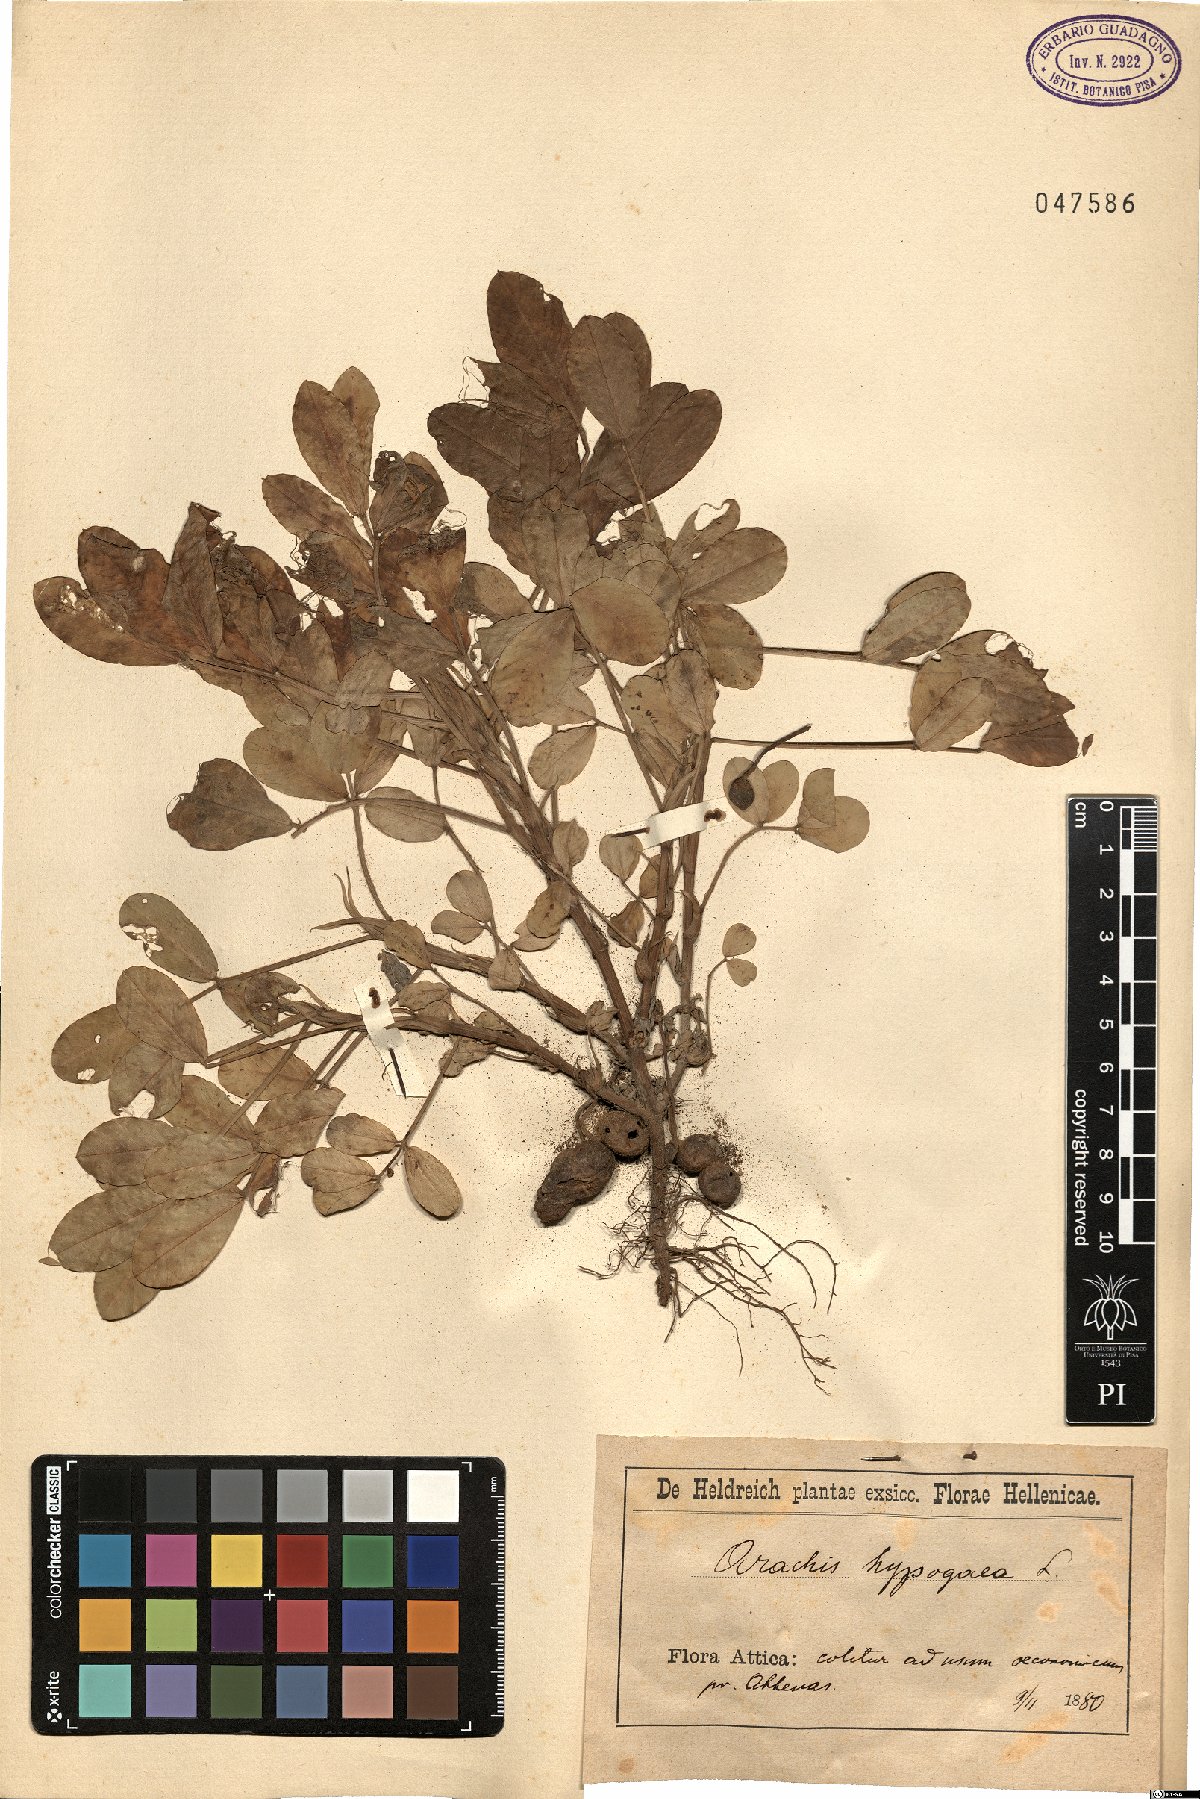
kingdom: Plantae
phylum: Tracheophyta
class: Magnoliopsida
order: Fabales
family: Fabaceae
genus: Arachis
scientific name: Arachis hypogaea
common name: Peanut
